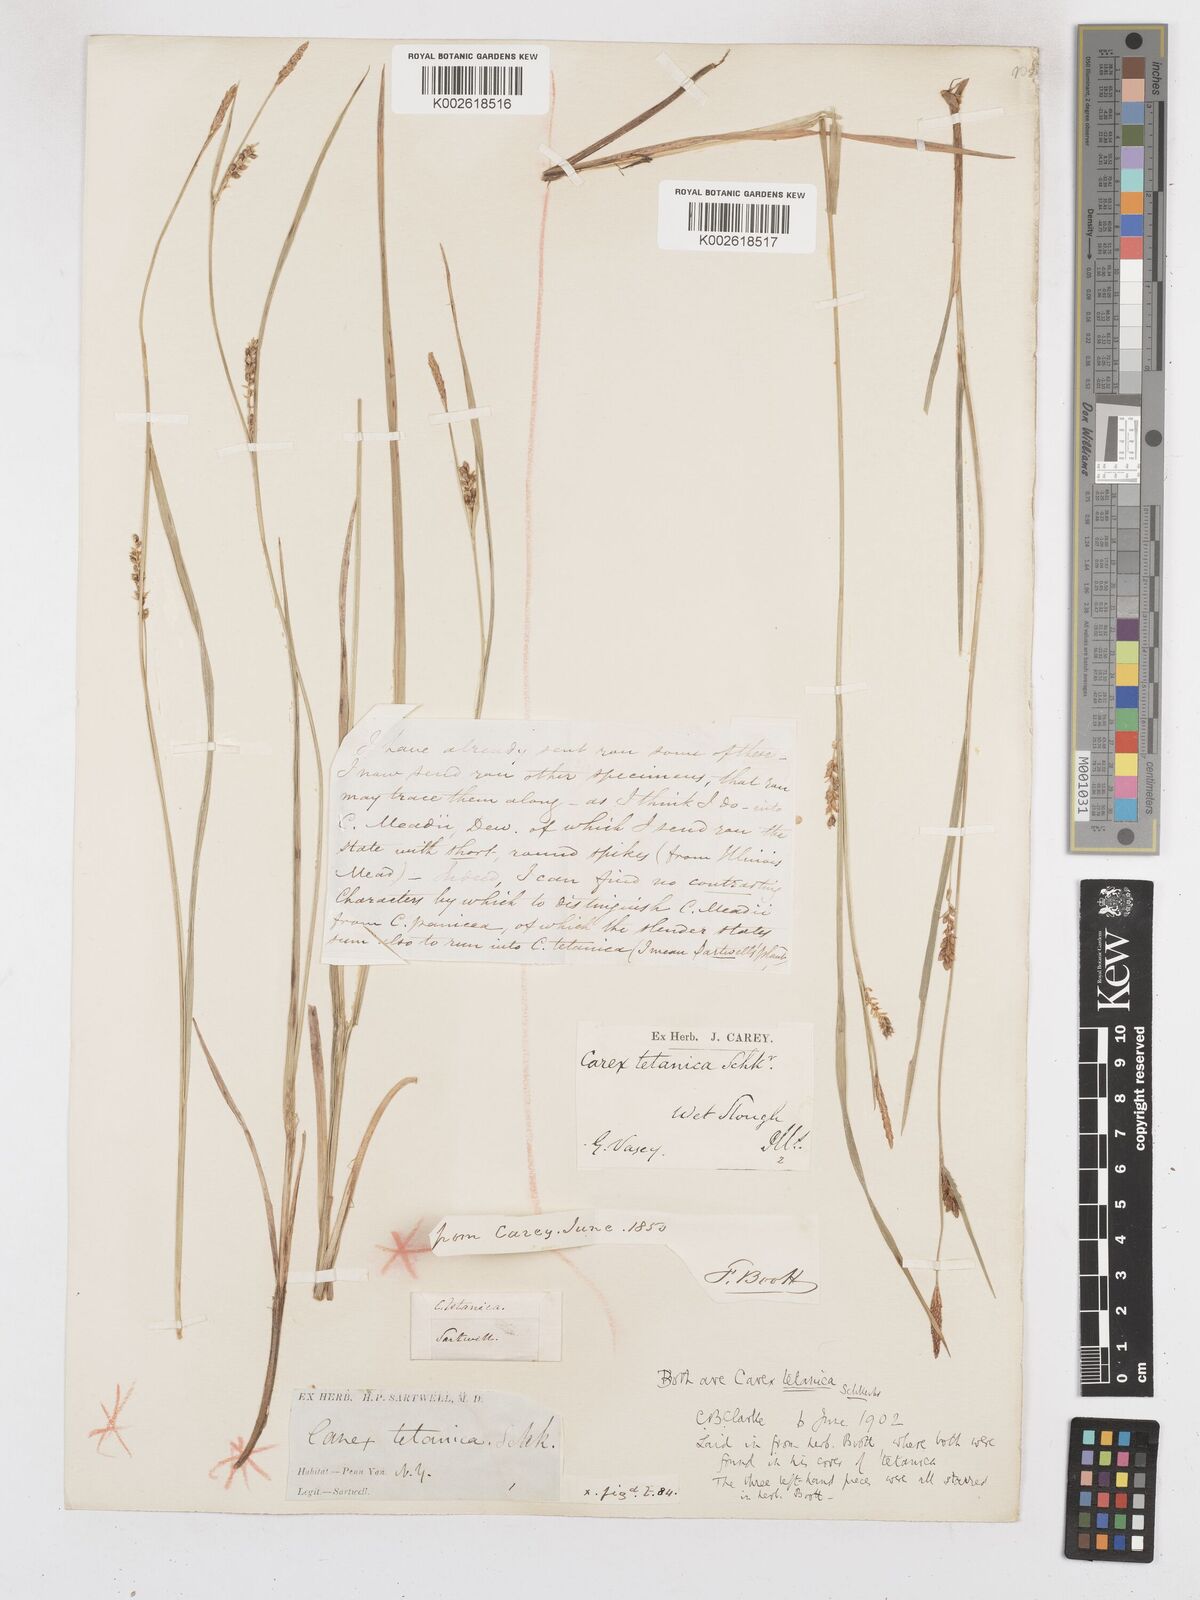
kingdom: Plantae
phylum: Tracheophyta
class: Liliopsida
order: Poales
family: Cyperaceae
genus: Carex
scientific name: Carex tetanica
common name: Rigid sedge
